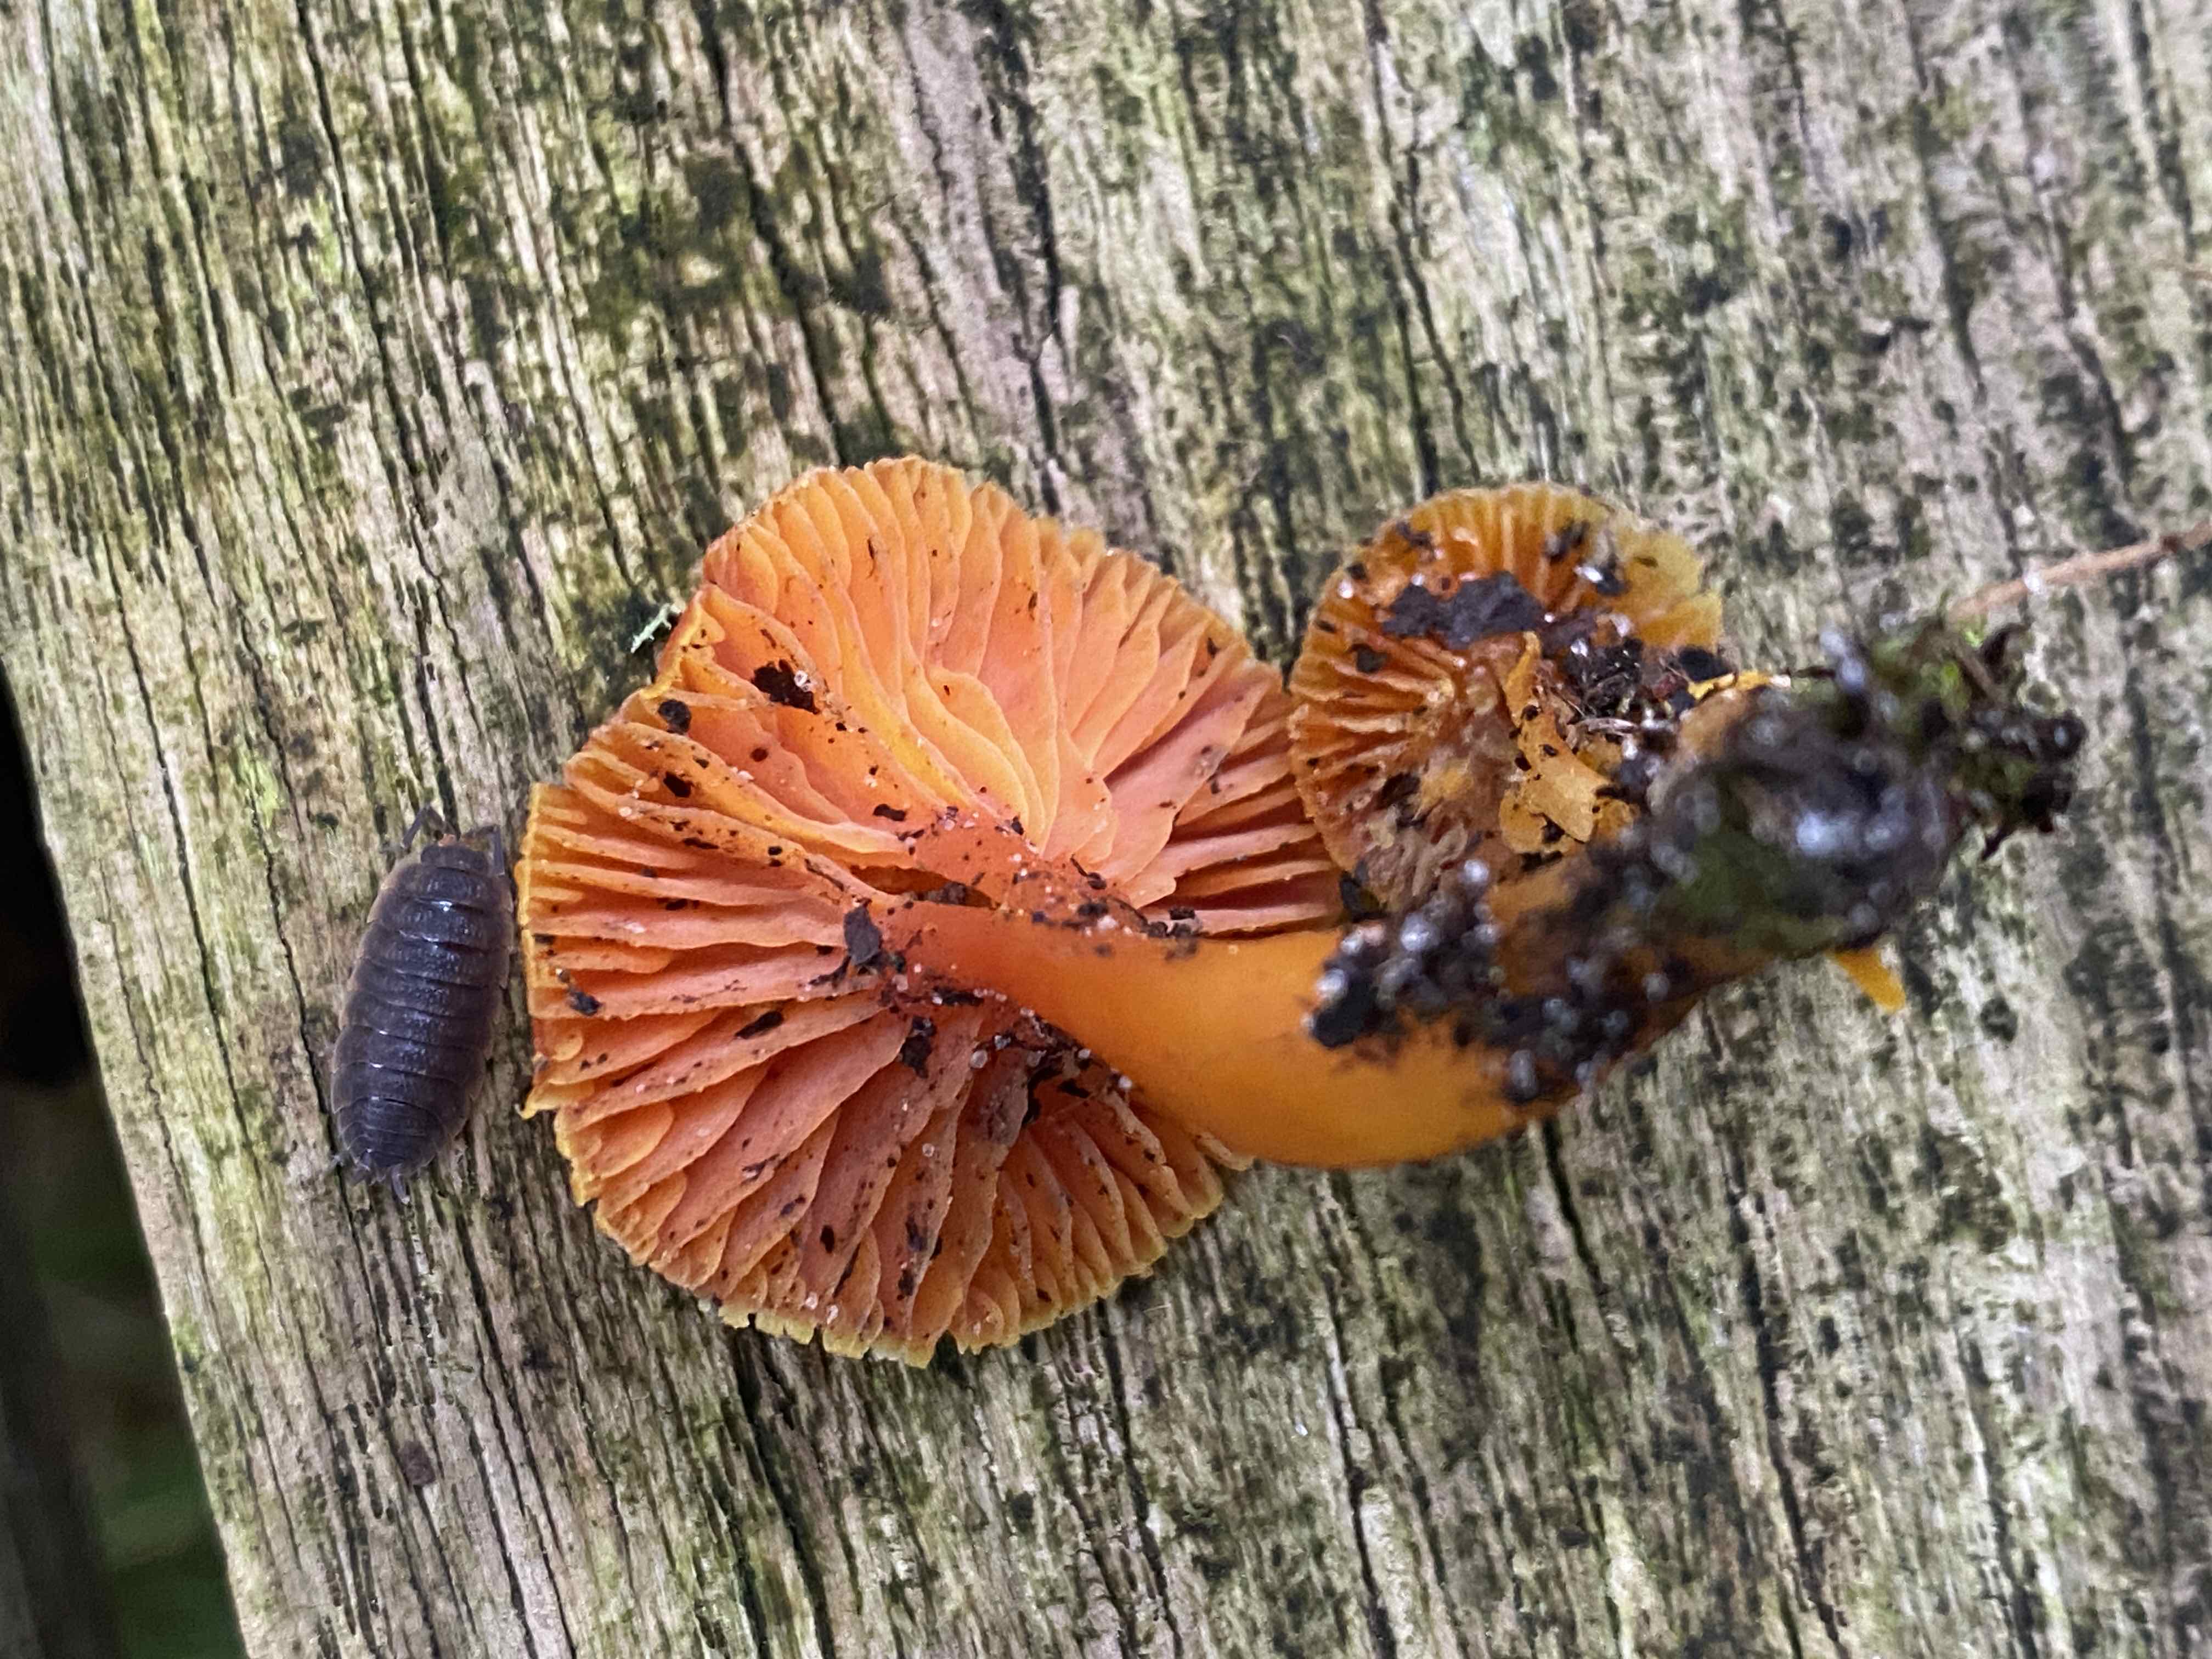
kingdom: Fungi
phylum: Basidiomycota
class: Agaricomycetes
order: Agaricales
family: Hygrophoraceae
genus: Hygrocybe
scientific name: Hygrocybe miniata
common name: mønje-vokshat
